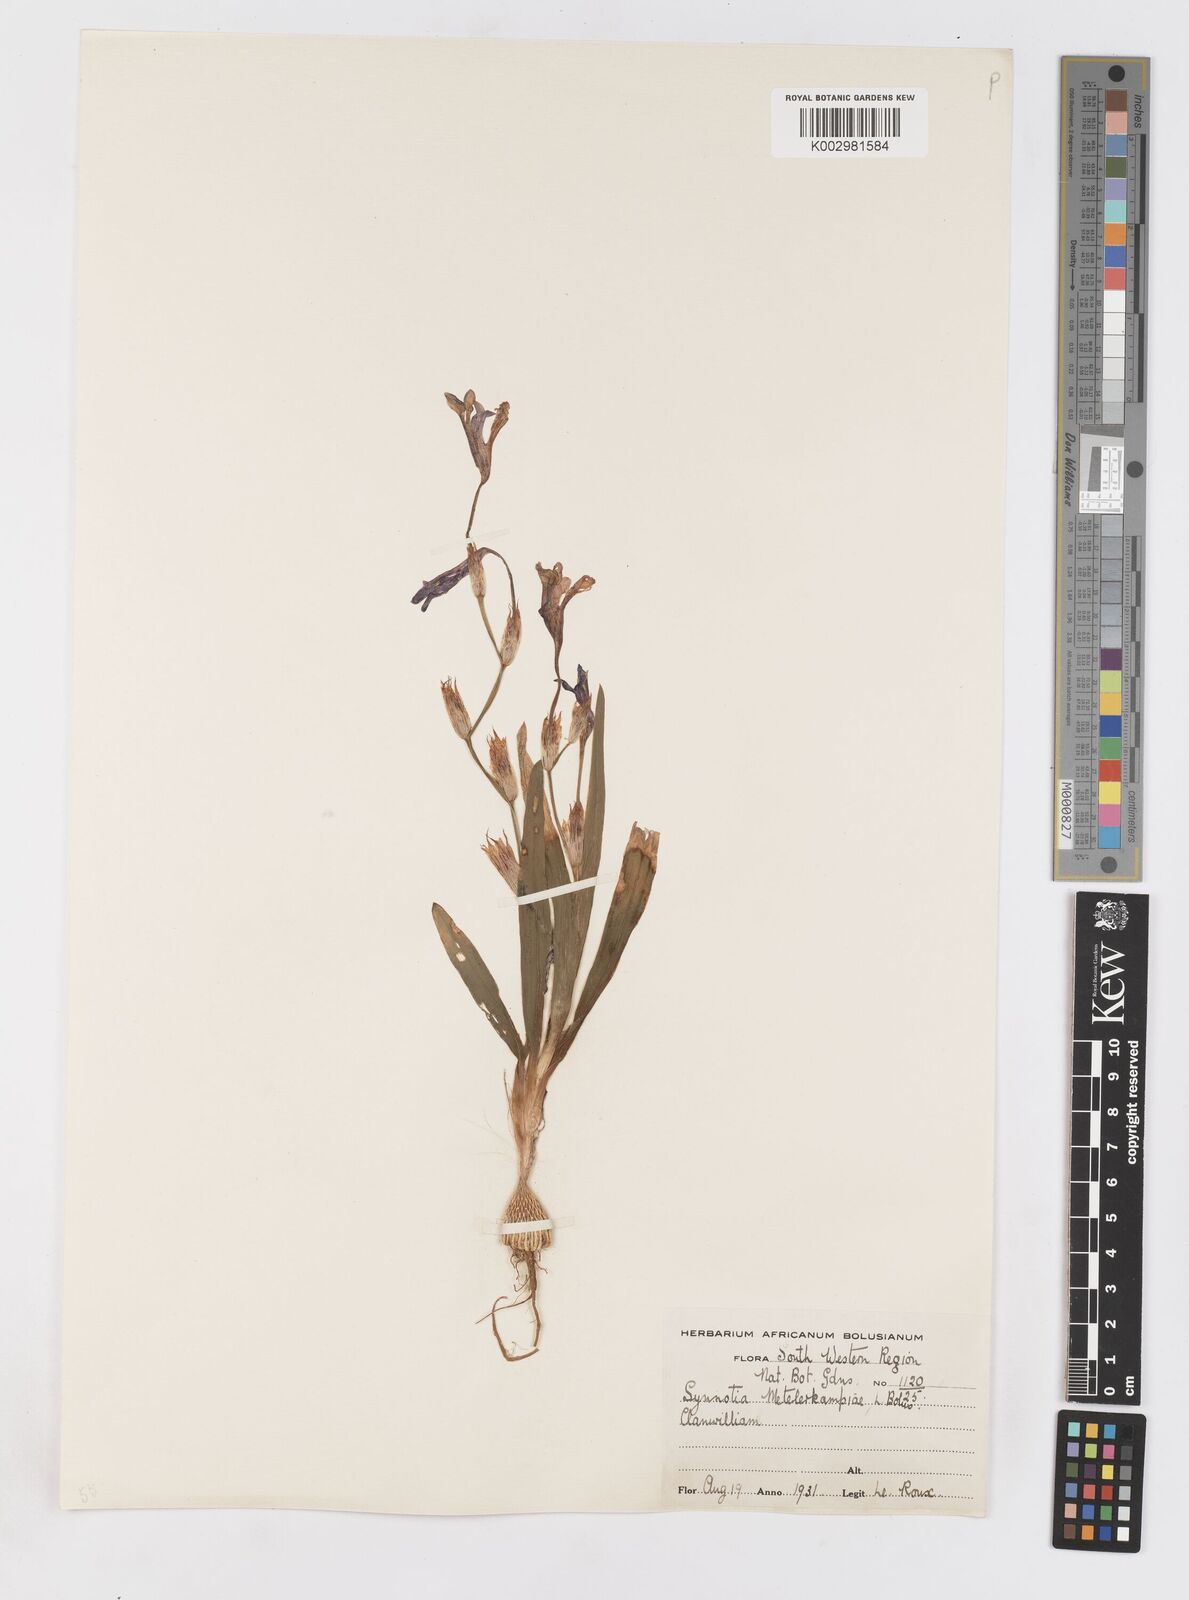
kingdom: Plantae
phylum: Tracheophyta
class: Liliopsida
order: Asparagales
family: Iridaceae
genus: Sparaxis
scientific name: Sparaxis metelerkampiae
